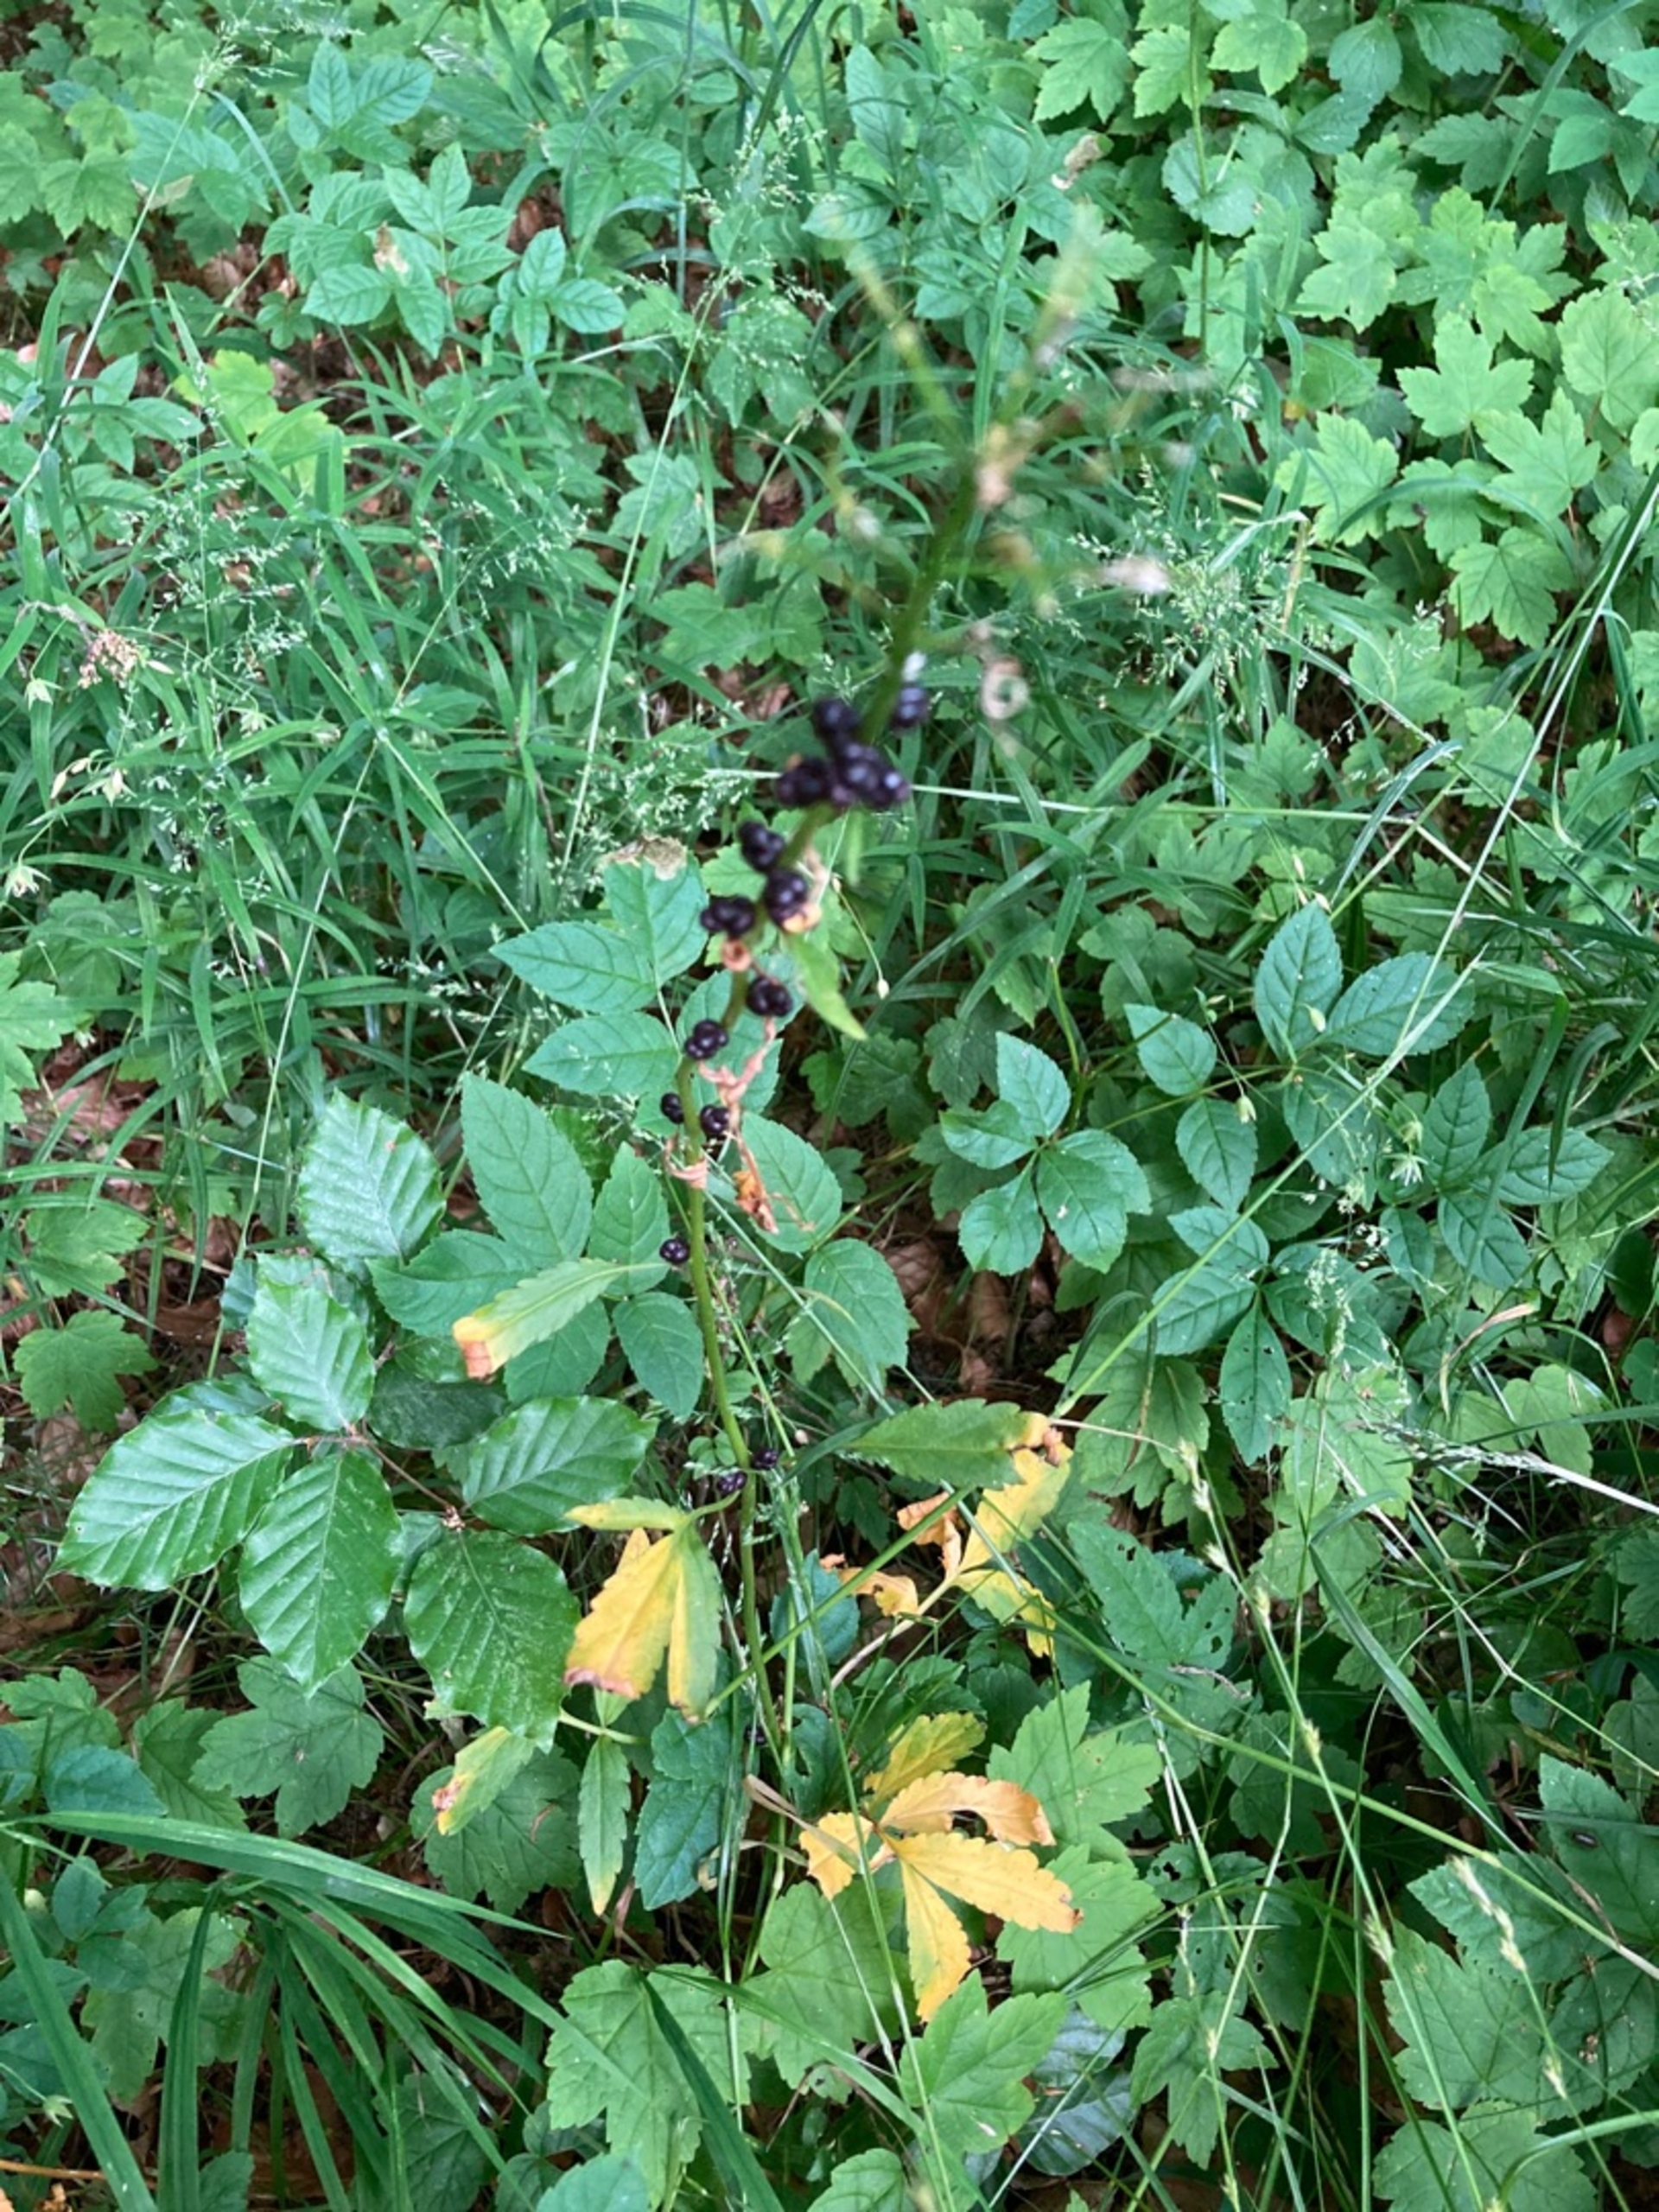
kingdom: Plantae
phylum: Tracheophyta
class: Magnoliopsida
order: Brassicales
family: Brassicaceae
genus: Cardamine
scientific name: Cardamine bulbifera
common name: Tandrod
